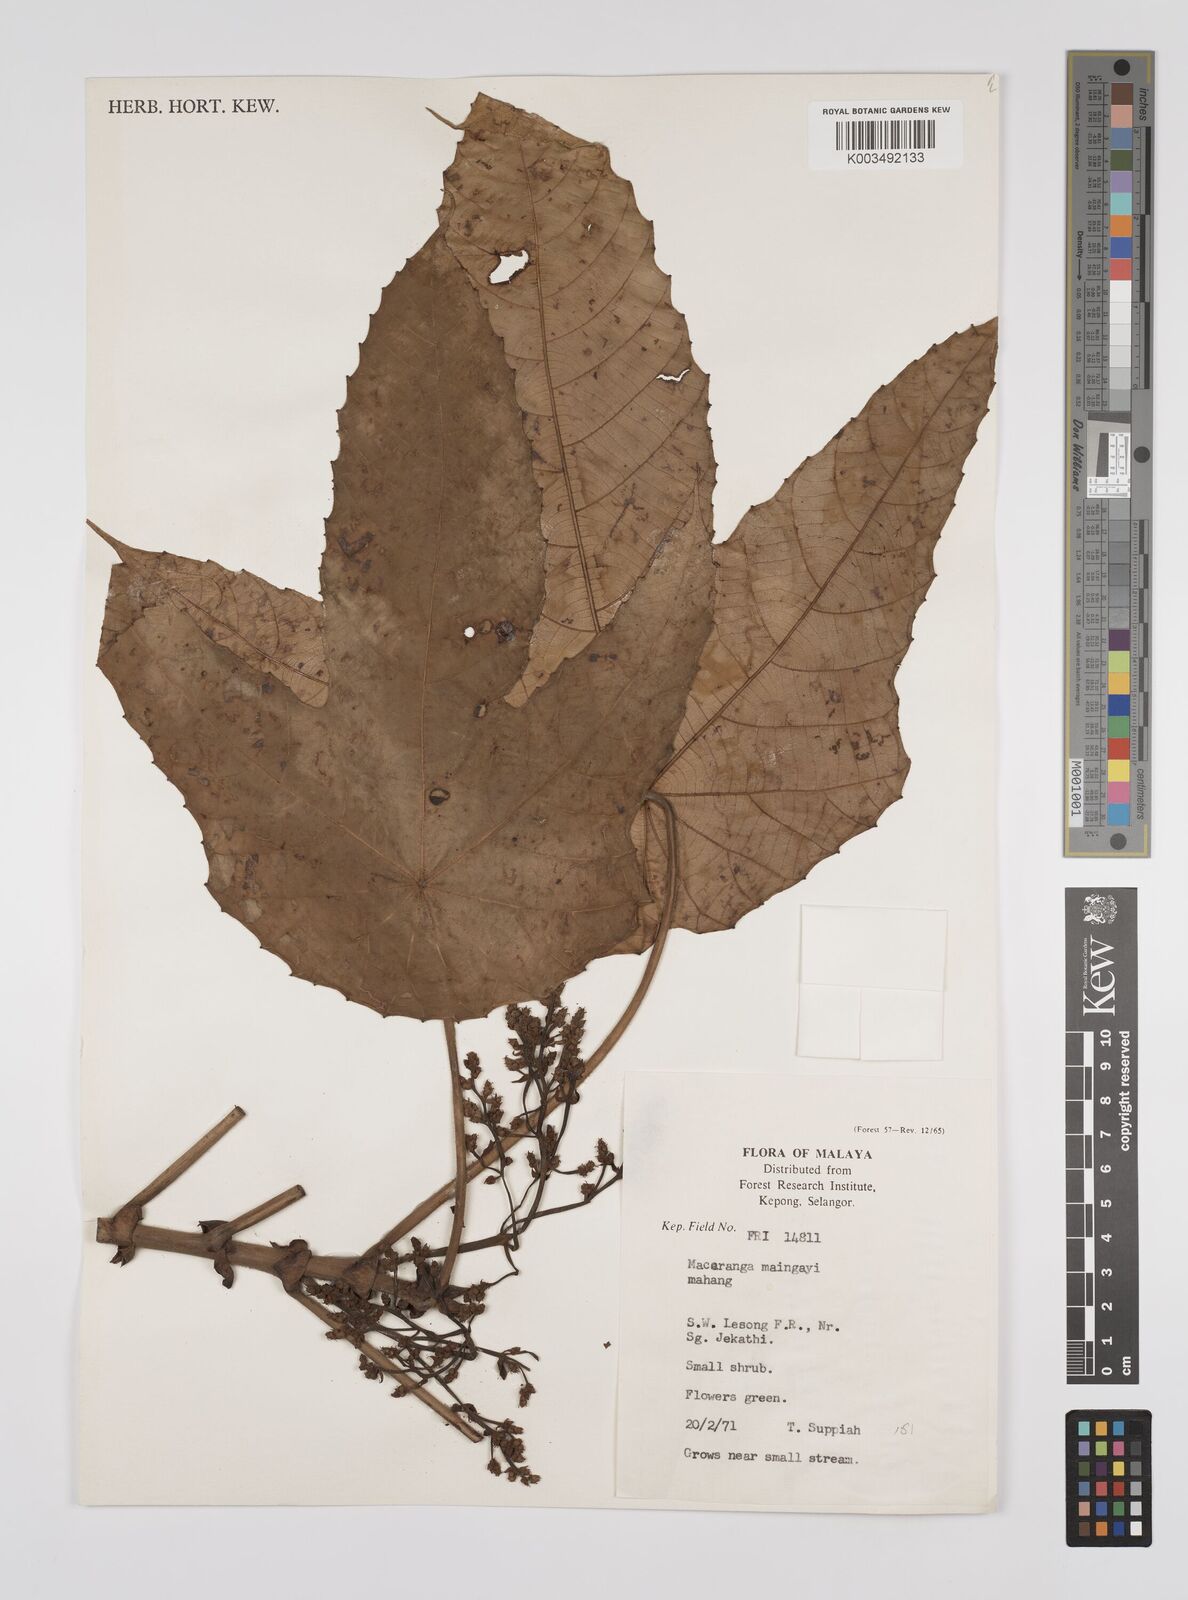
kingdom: Plantae
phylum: Tracheophyta
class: Magnoliopsida
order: Malpighiales
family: Euphorbiaceae
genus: Macaranga
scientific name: Macaranga pruinosa
